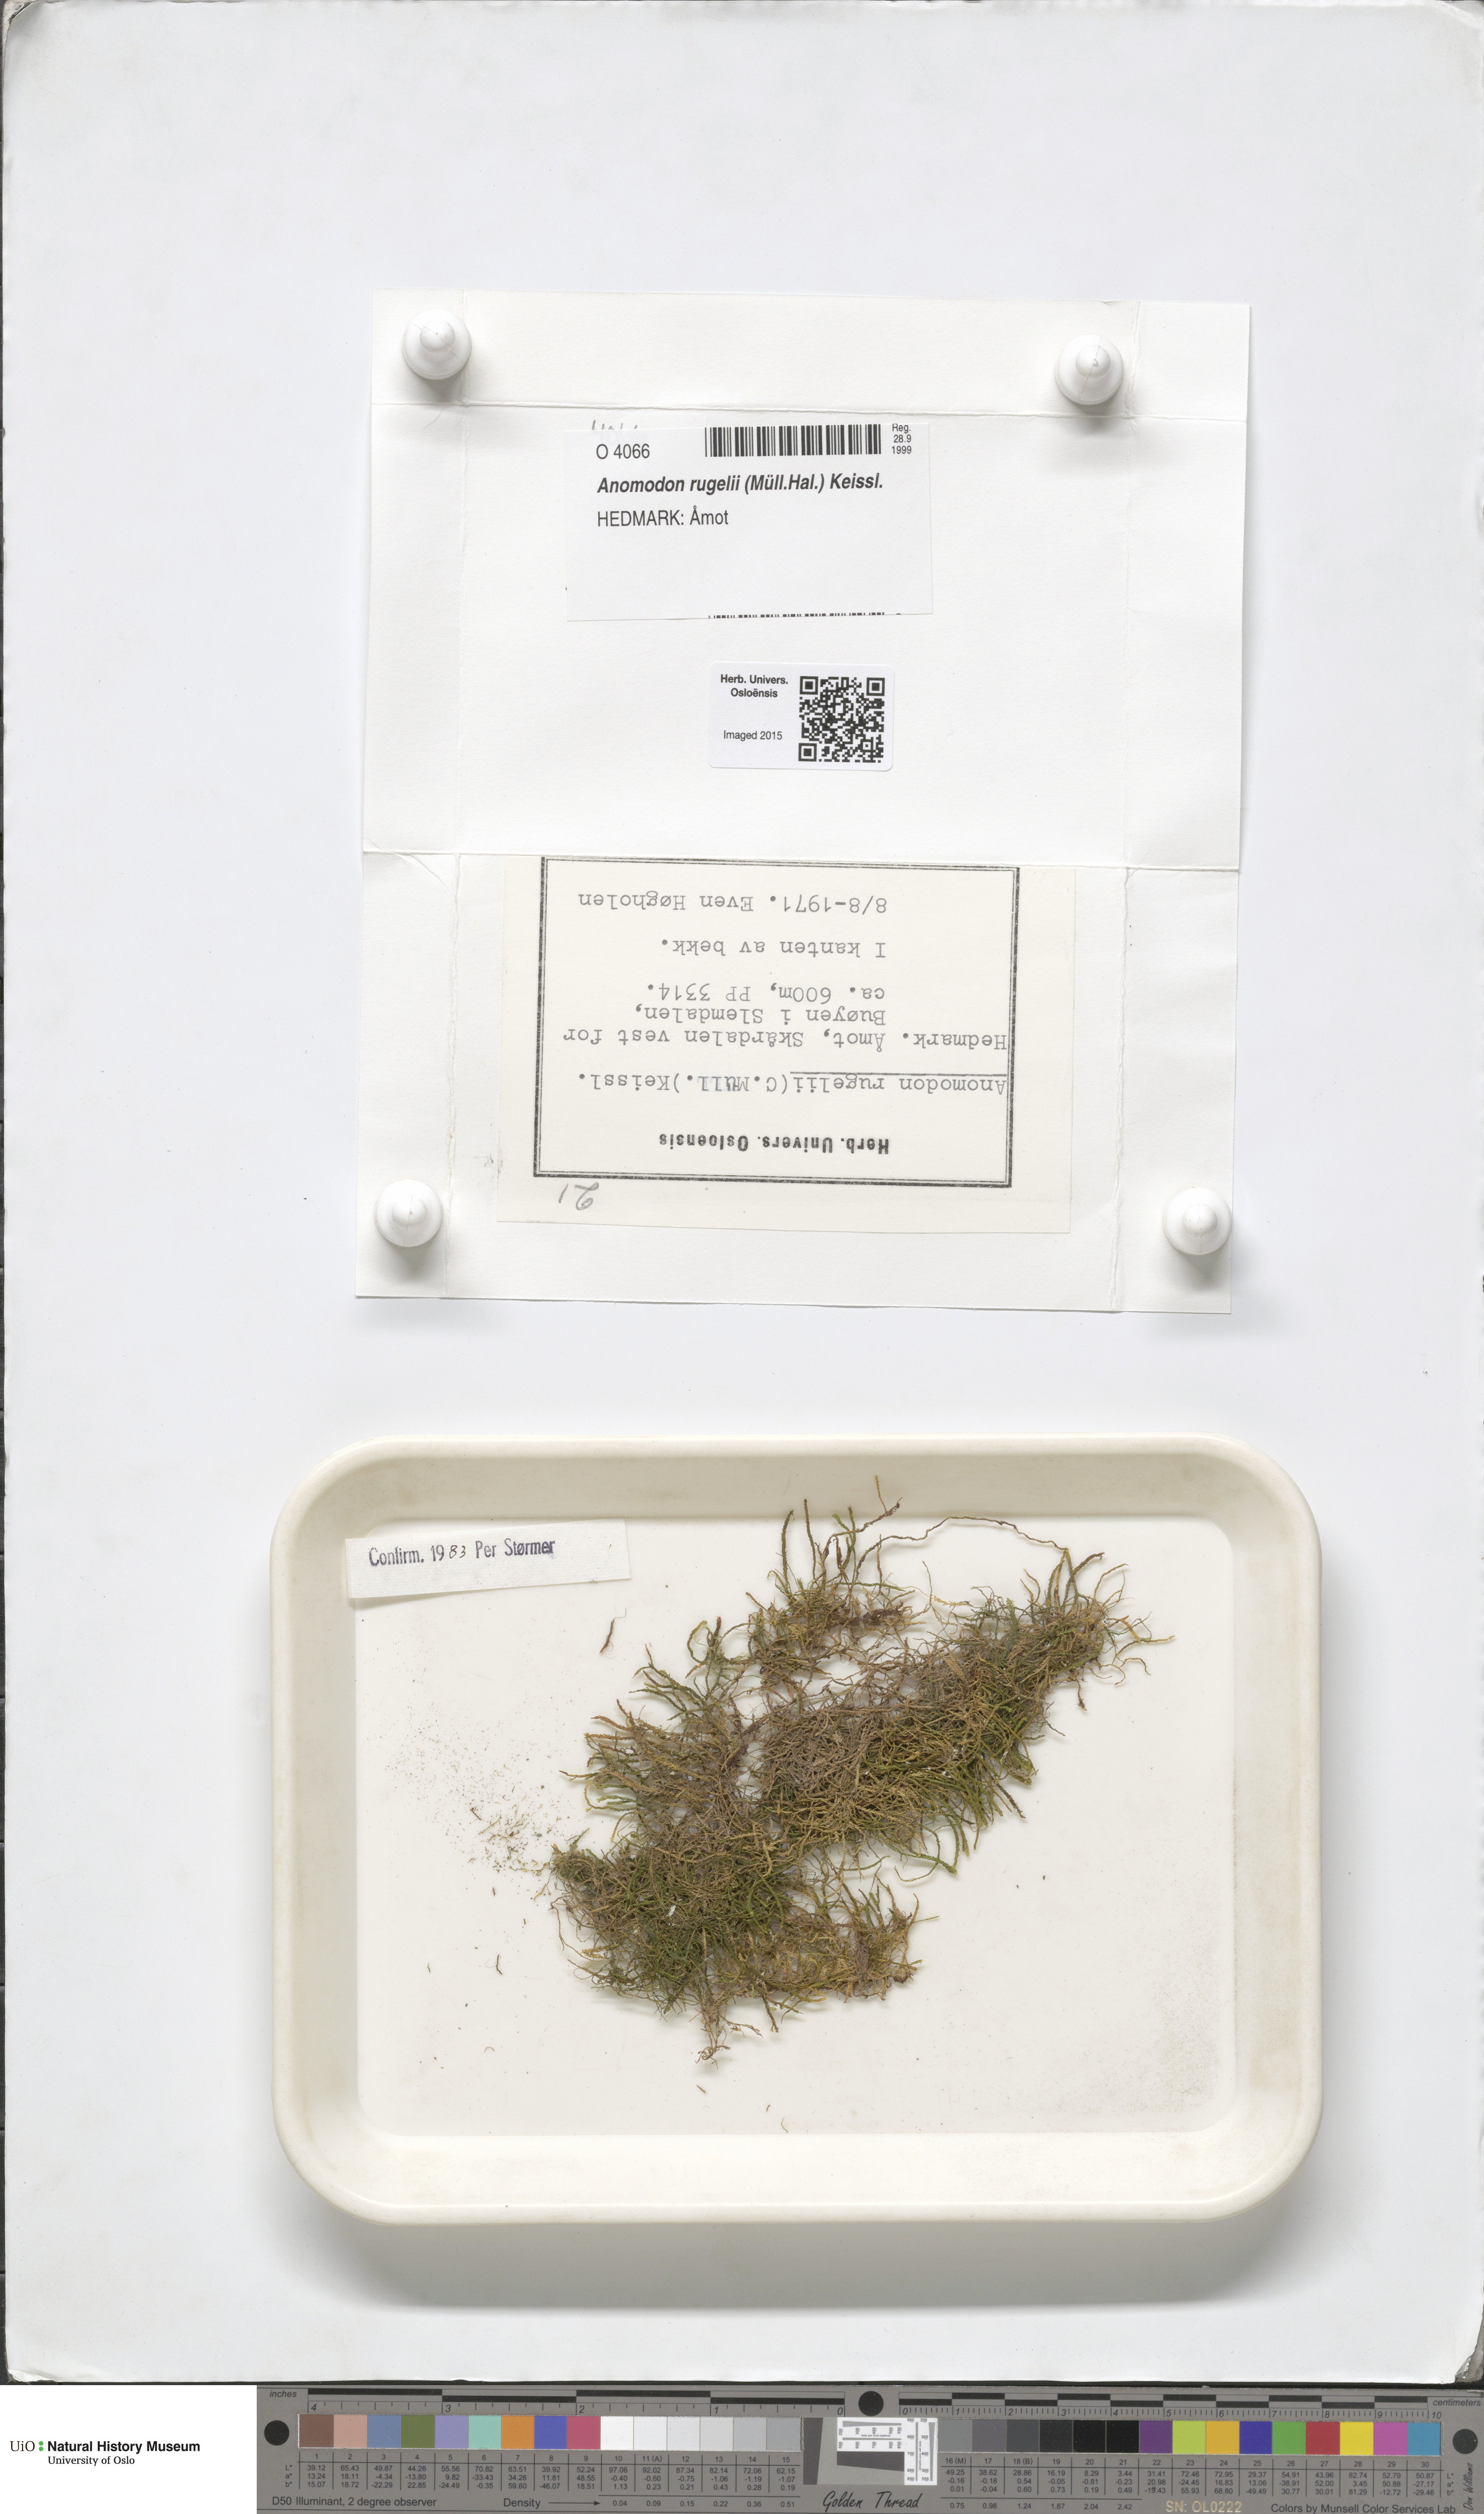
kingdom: Plantae
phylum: Bryophyta
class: Bryopsida
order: Hypnales
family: Anomodontaceae
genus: Anomodontopsis
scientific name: Anomodontopsis rugelii
